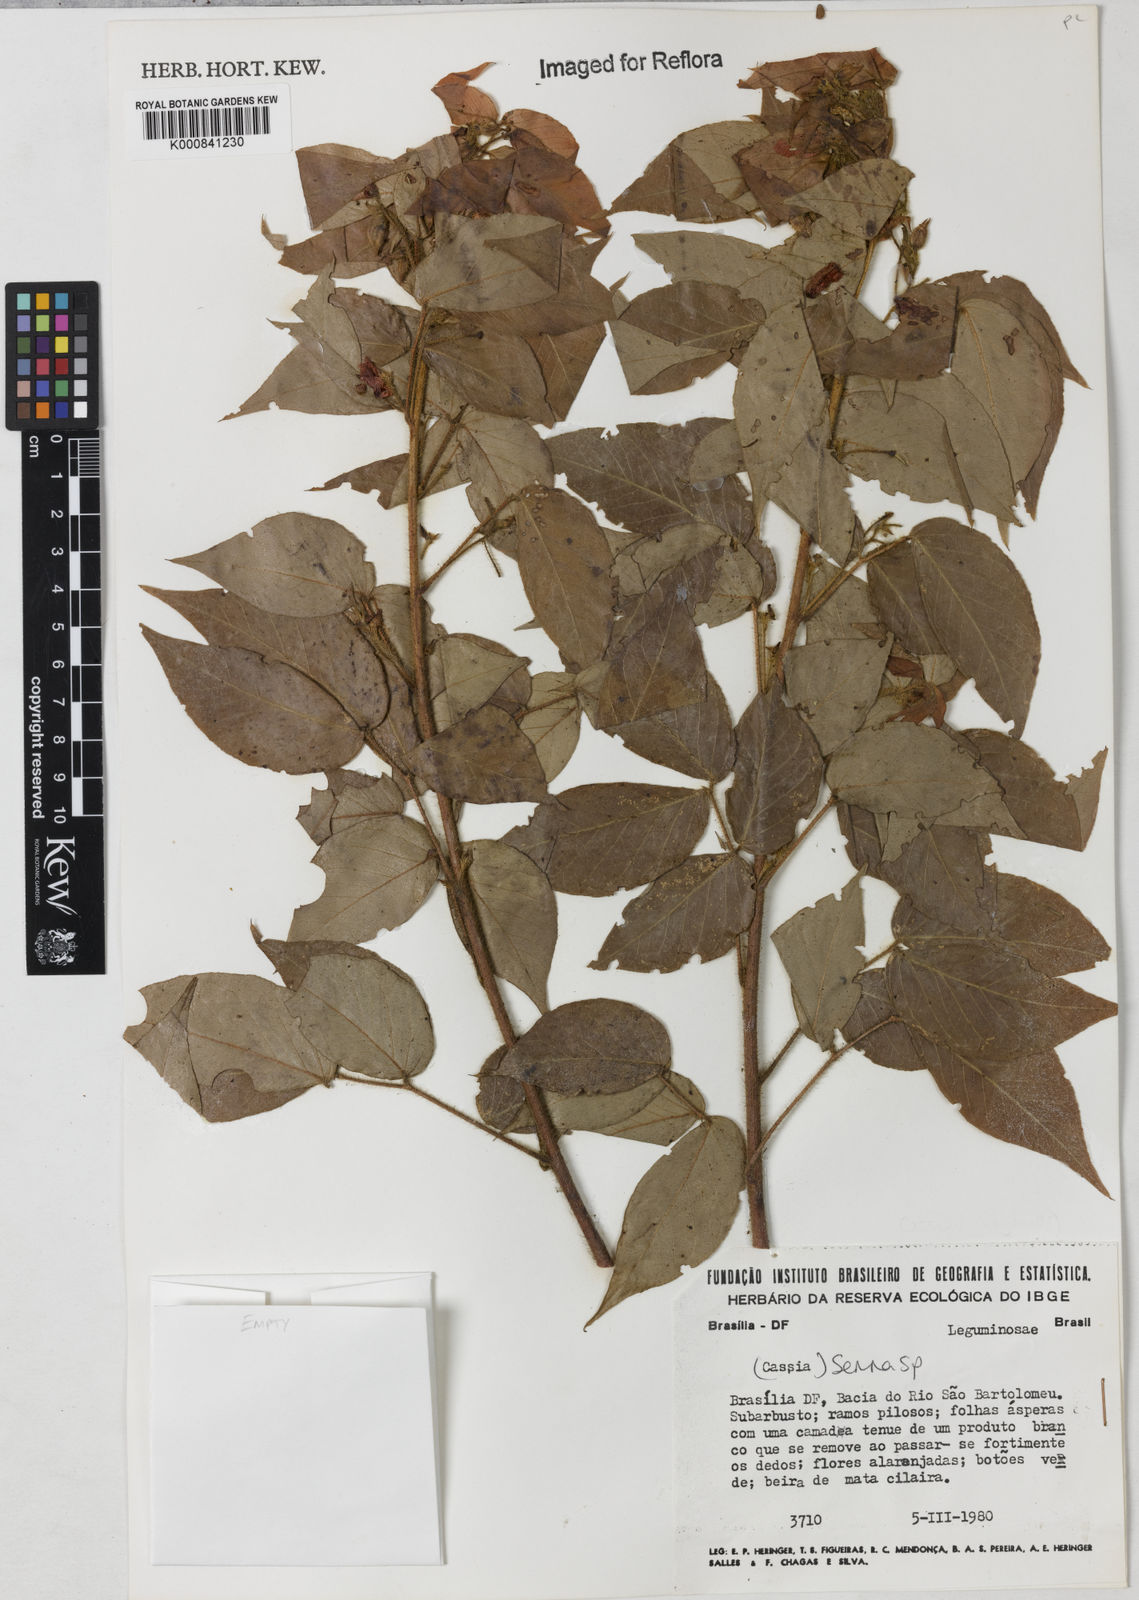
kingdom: Plantae
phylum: Tracheophyta
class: Magnoliopsida
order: Fabales
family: Fabaceae
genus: Senna
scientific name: Senna
